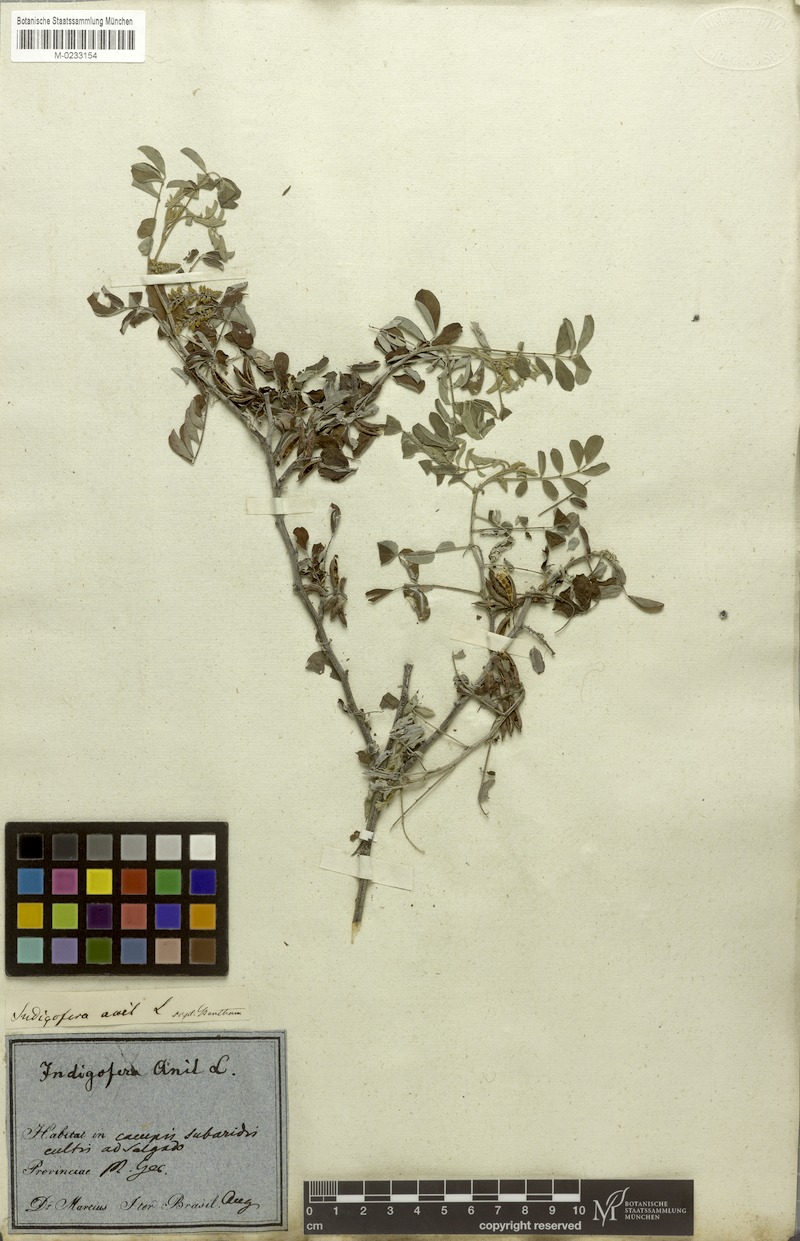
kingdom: Plantae
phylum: Tracheophyta
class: Magnoliopsida
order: Fabales
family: Fabaceae
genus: Indigofera
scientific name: Indigofera suffruticosa
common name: Anil de pasto
